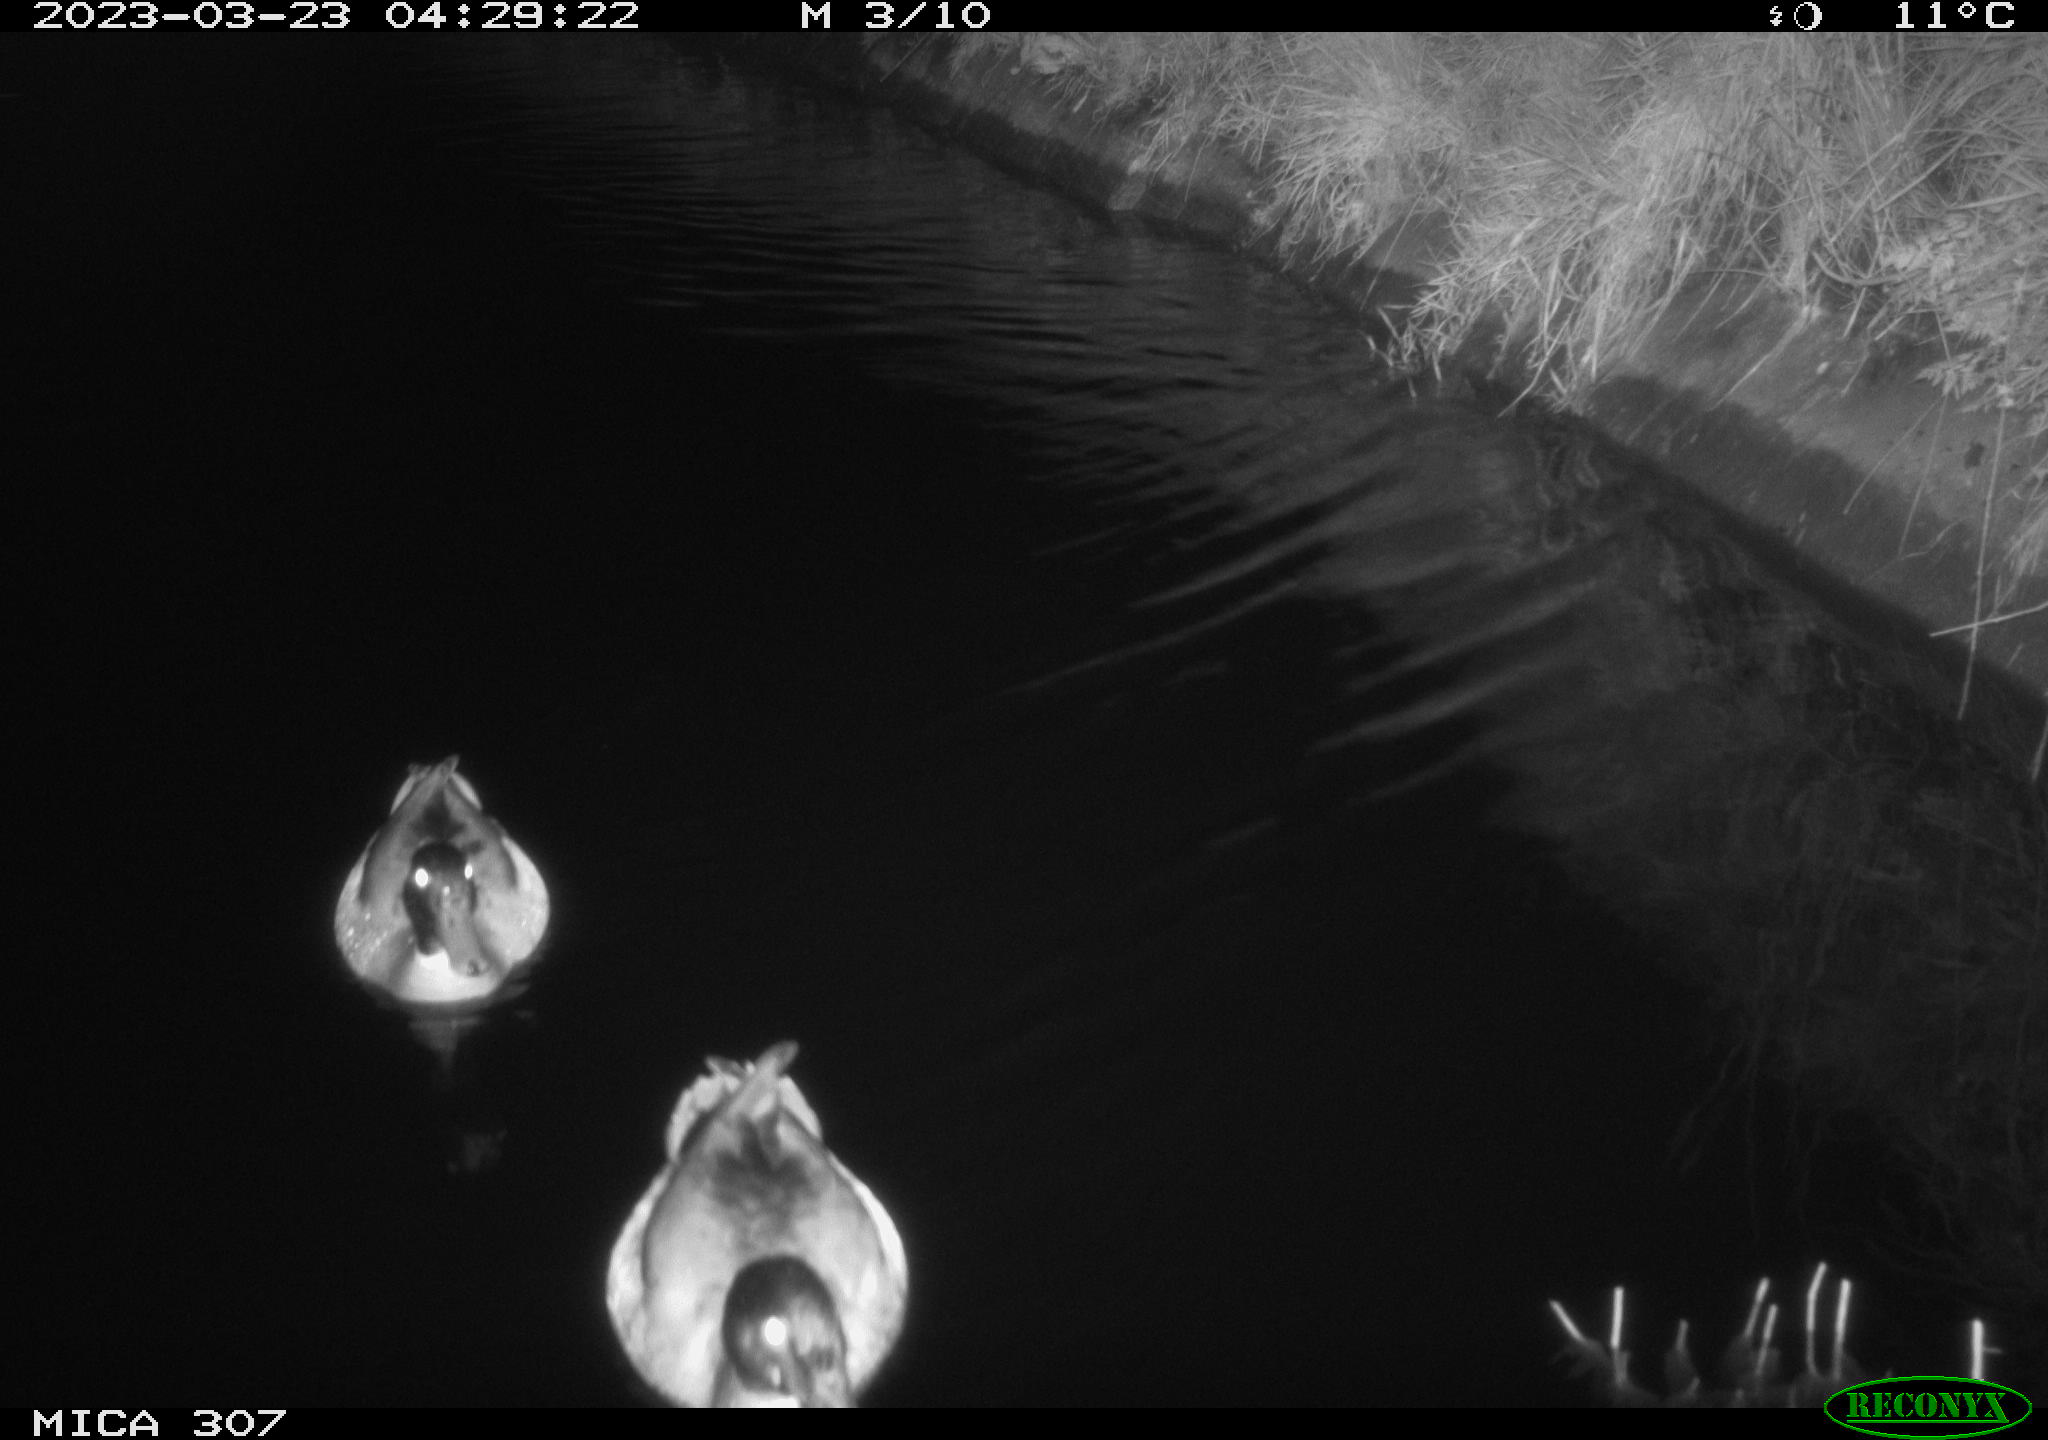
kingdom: Animalia
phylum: Chordata
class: Aves
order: Anseriformes
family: Anatidae
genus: Anas
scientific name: Anas
